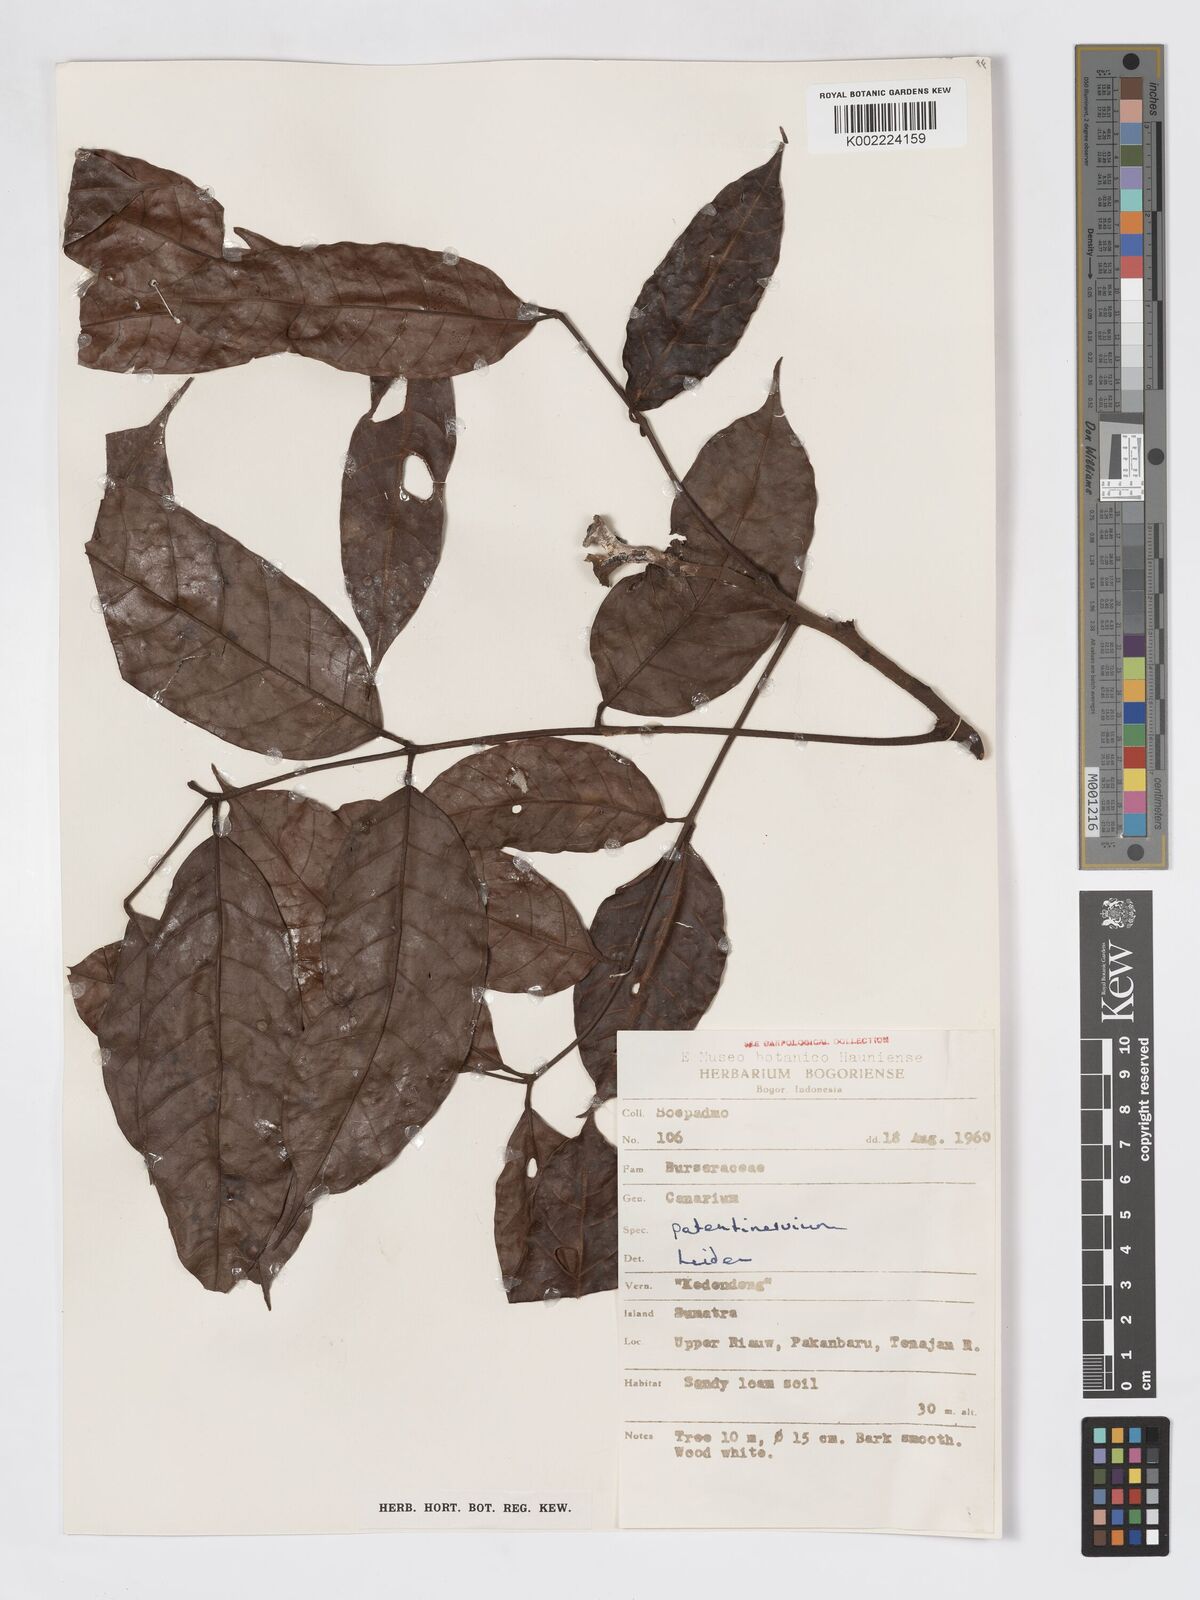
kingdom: Plantae
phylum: Tracheophyta
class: Magnoliopsida
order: Sapindales
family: Burseraceae
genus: Canarium
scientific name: Canarium patentinervium
